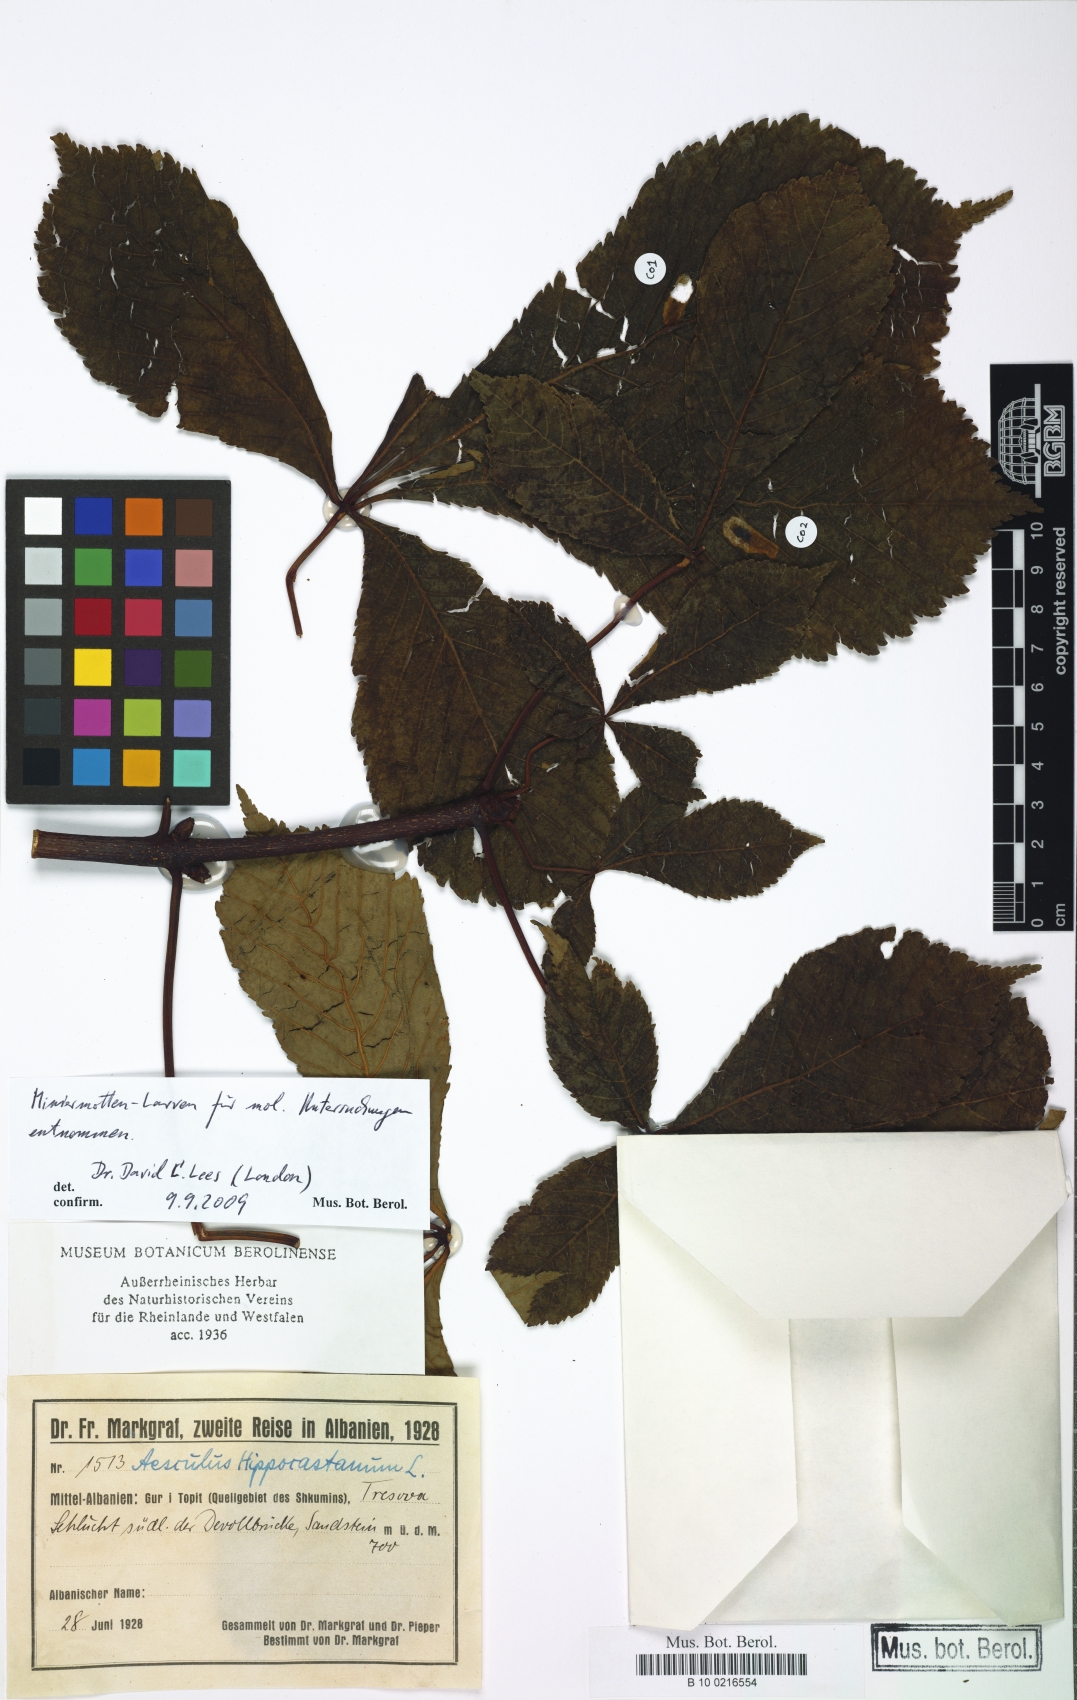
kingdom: Plantae
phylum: Tracheophyta
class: Magnoliopsida
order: Sapindales
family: Sapindaceae
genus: Aesculus
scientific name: Aesculus hippocastanum
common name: Horse-chestnut
